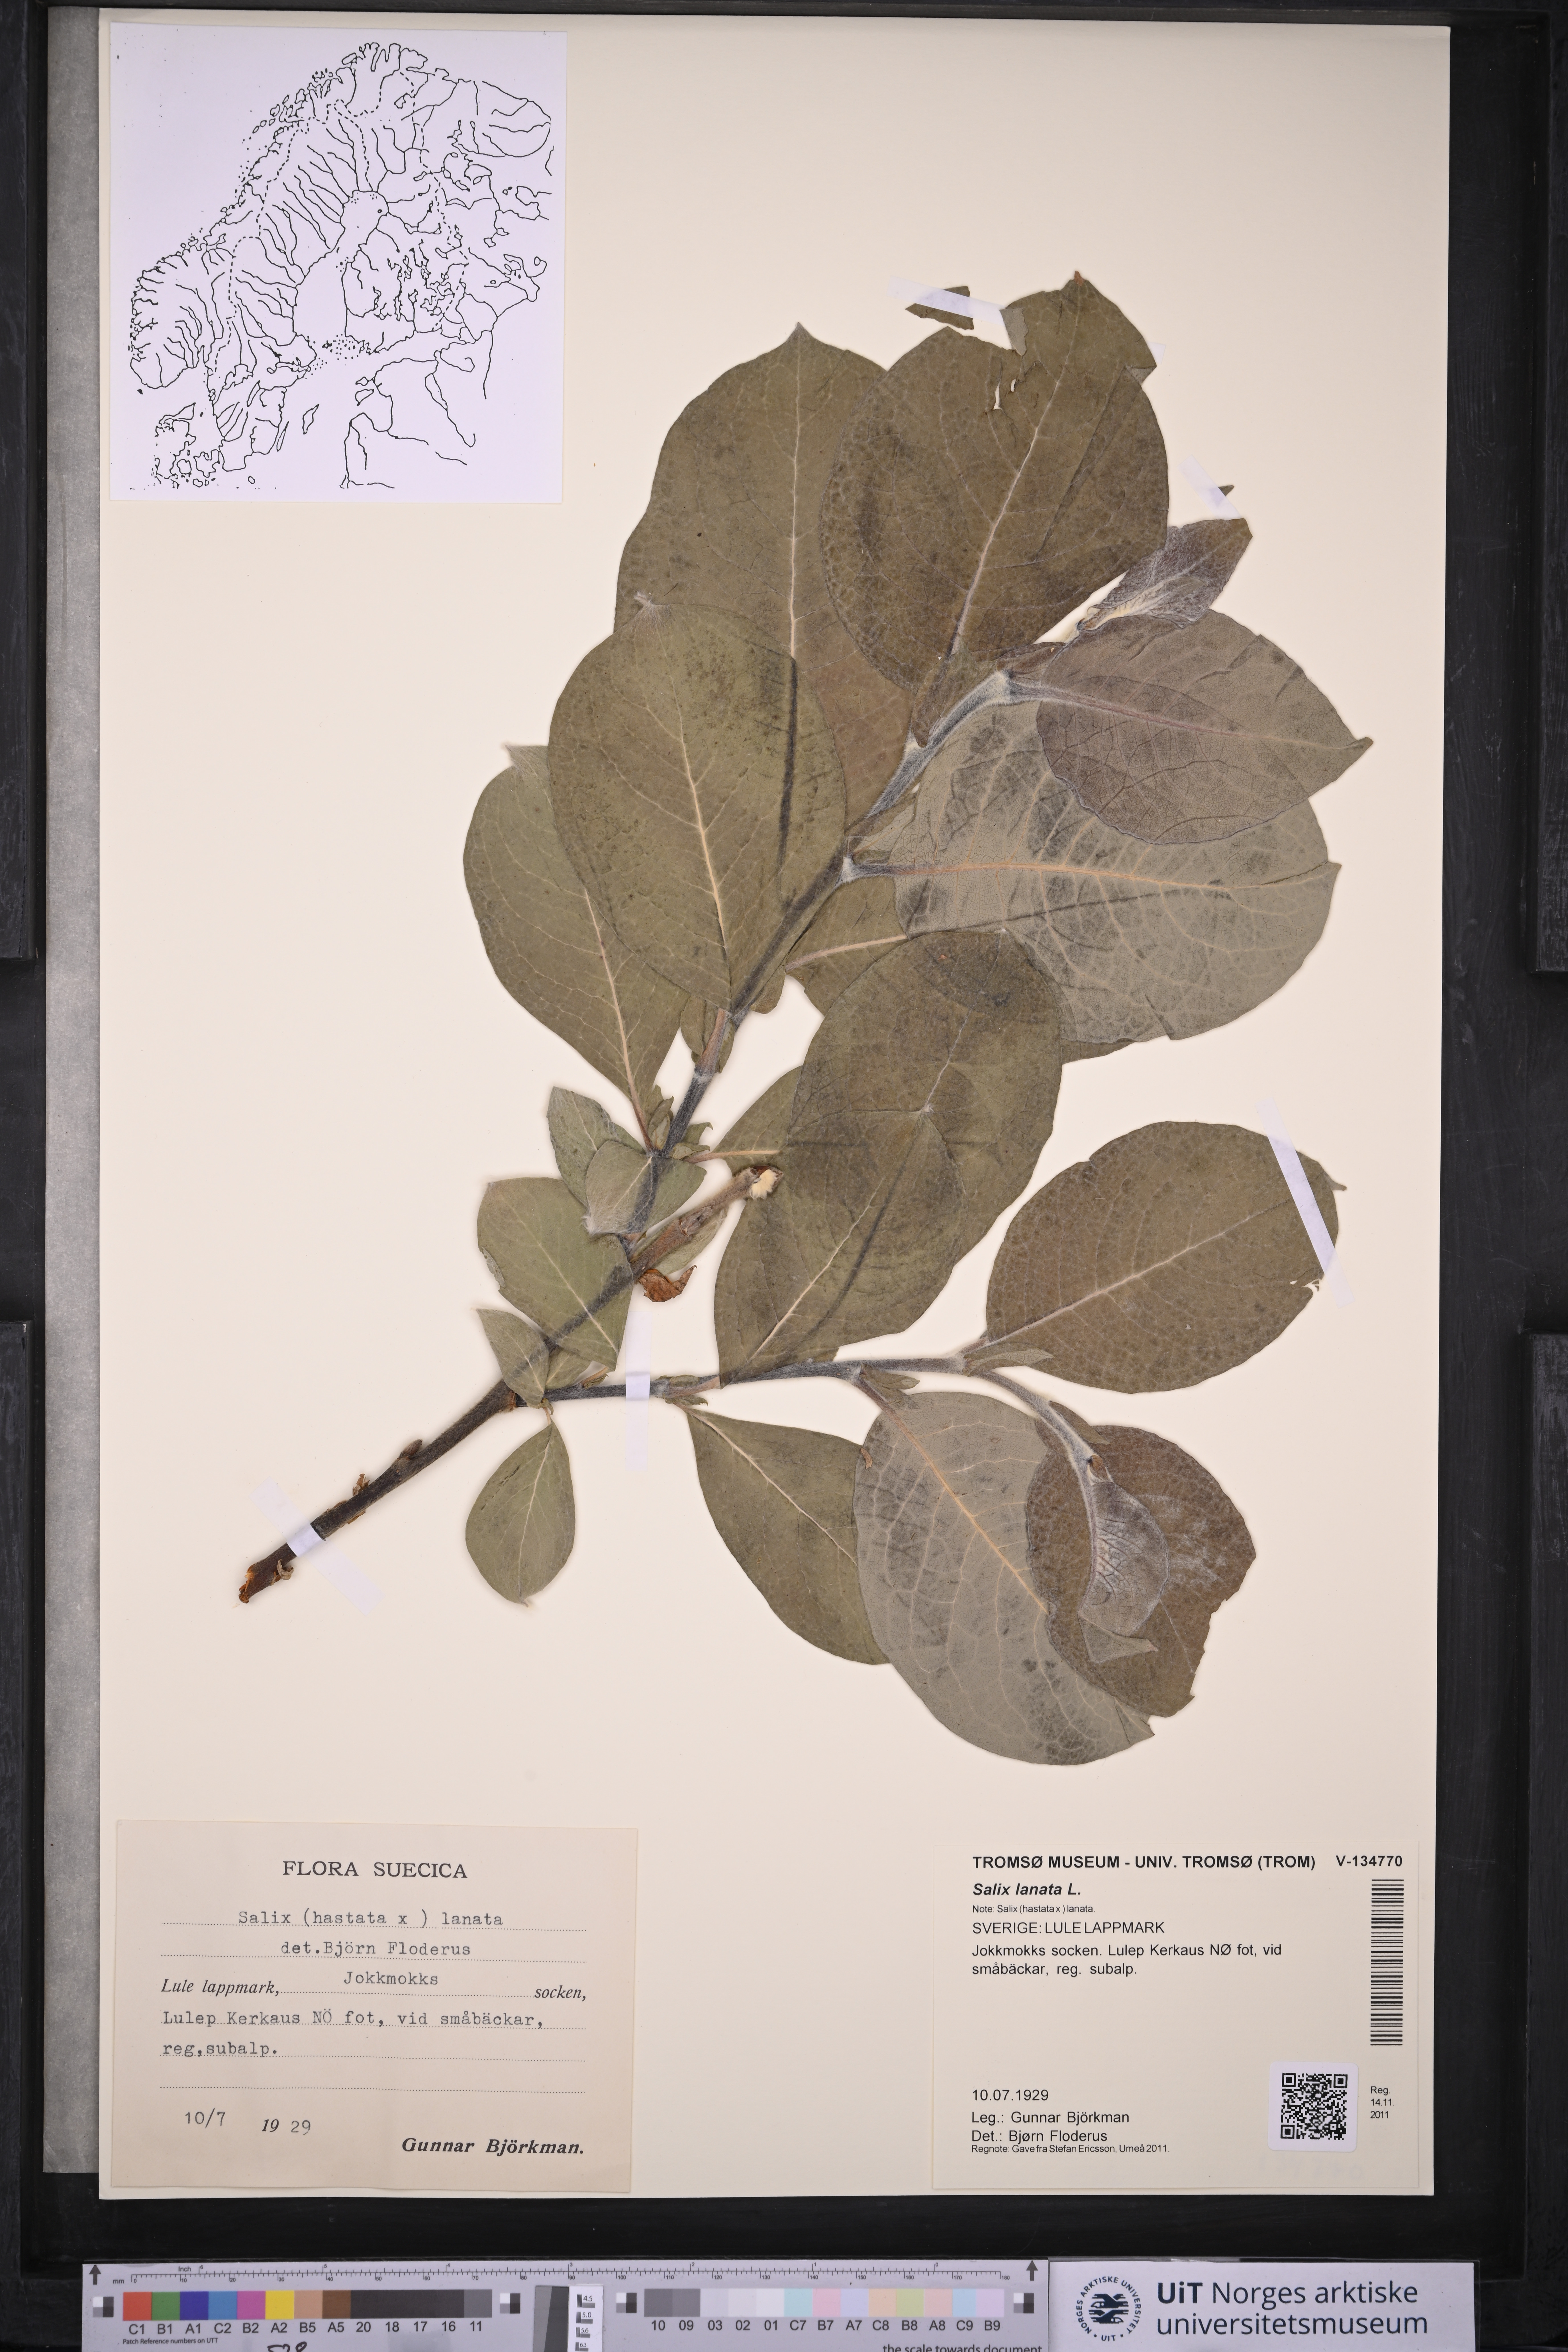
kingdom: Plantae
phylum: Tracheophyta
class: Magnoliopsida
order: Malpighiales
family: Salicaceae
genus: Salix
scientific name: Salix lanata
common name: Woolly willow
